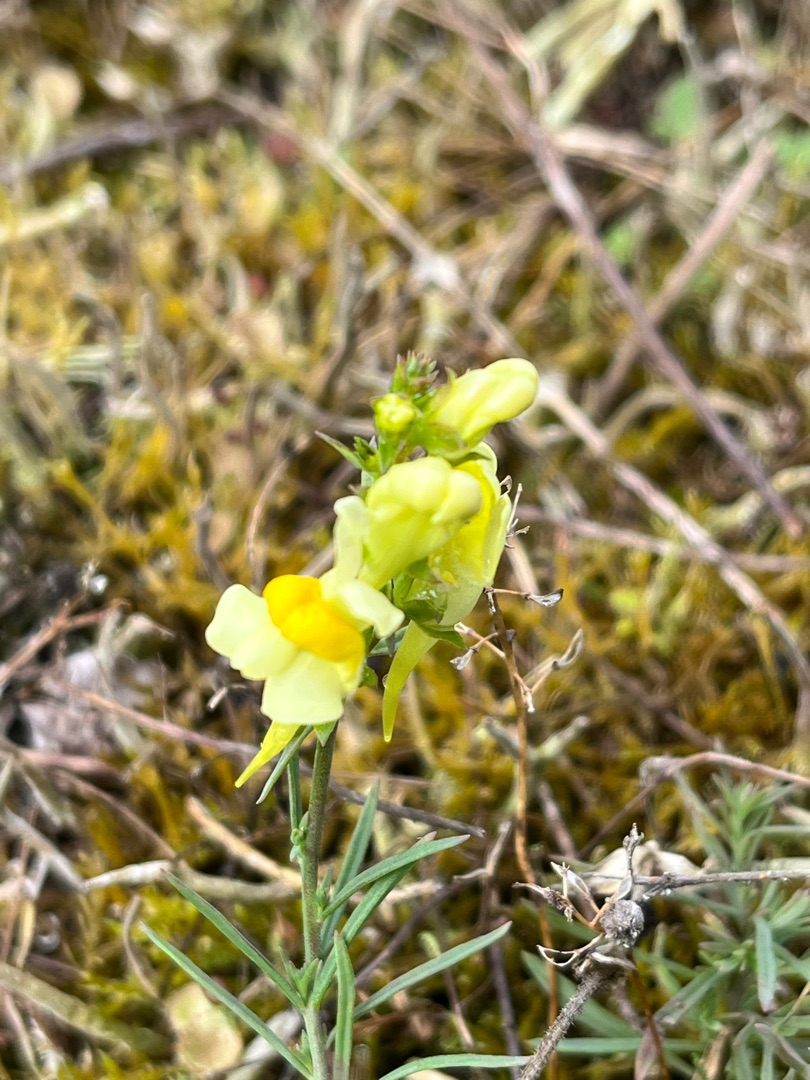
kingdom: Plantae
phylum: Tracheophyta
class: Magnoliopsida
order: Lamiales
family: Plantaginaceae
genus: Linaria
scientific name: Linaria vulgaris
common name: Almindelig torskemund
